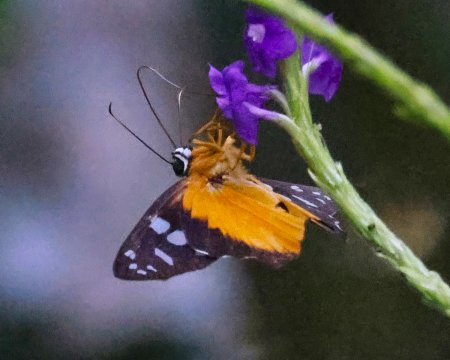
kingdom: Animalia
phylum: Arthropoda
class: Insecta
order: Lepidoptera
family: Hesperiidae
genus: Phareas
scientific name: Phareas burnsi
